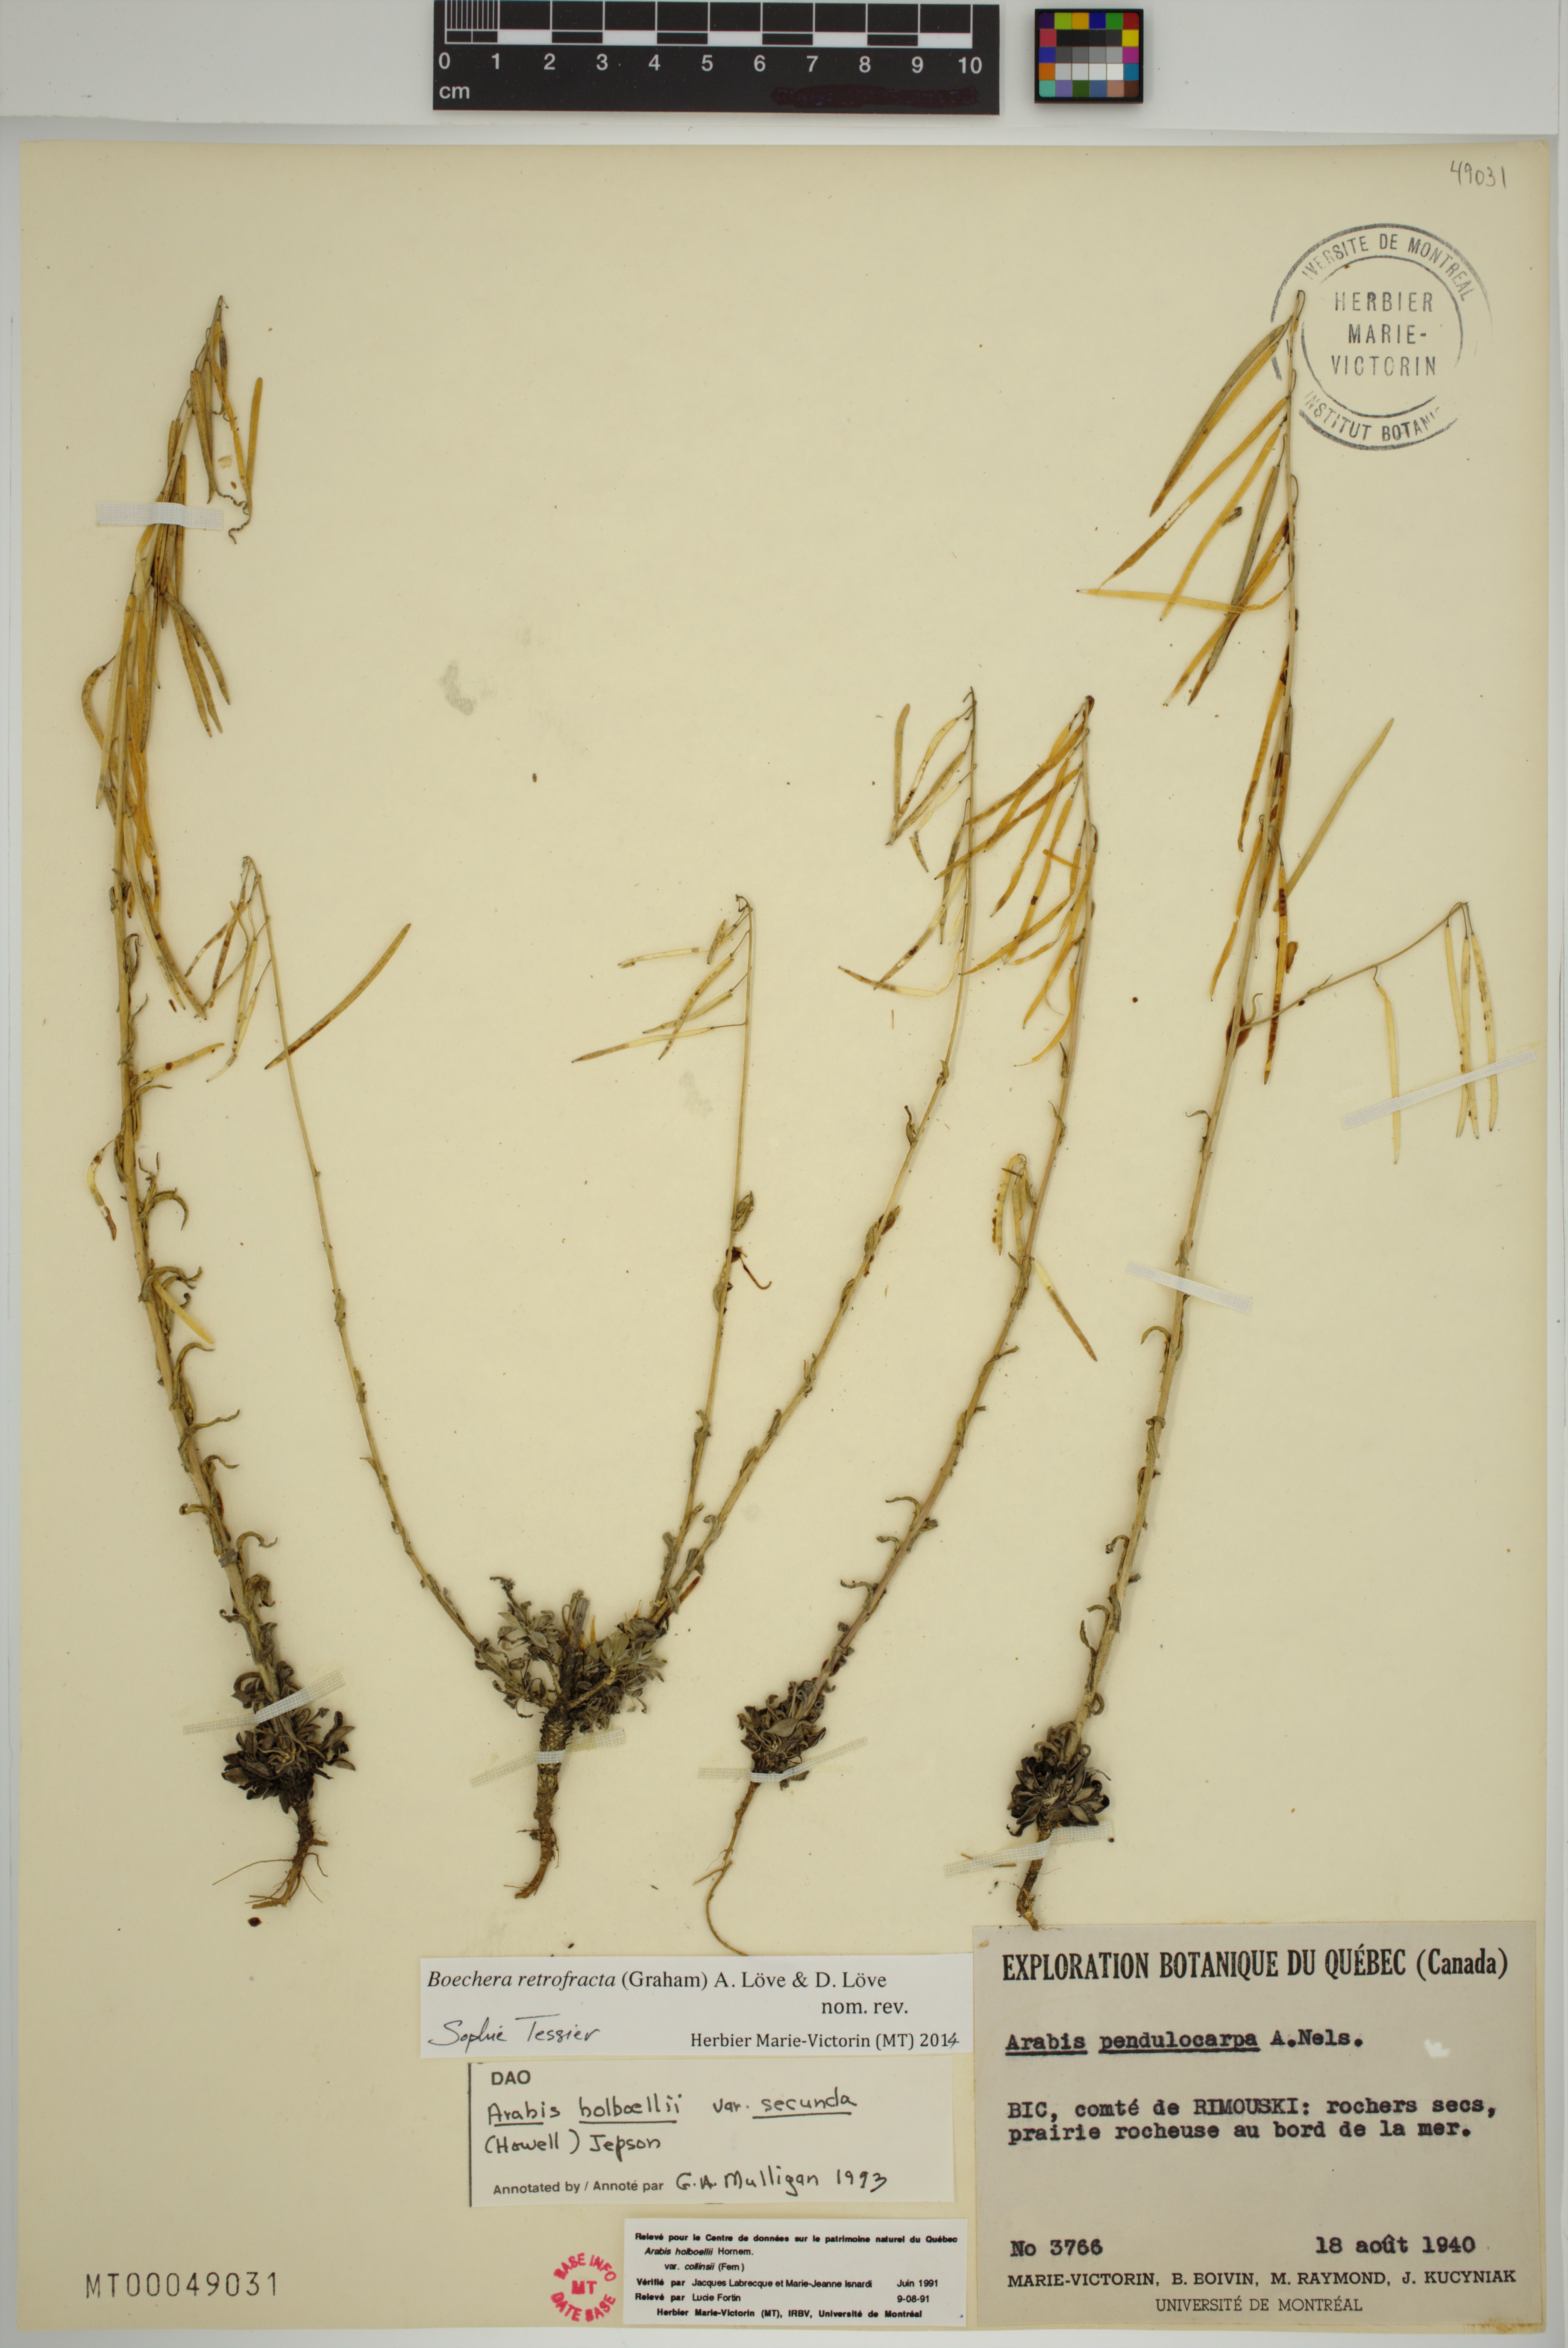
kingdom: Plantae
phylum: Tracheophyta
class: Magnoliopsida
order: Brassicales
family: Brassicaceae
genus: Boechera
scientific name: Boechera retrofracta
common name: Dangling suncress
